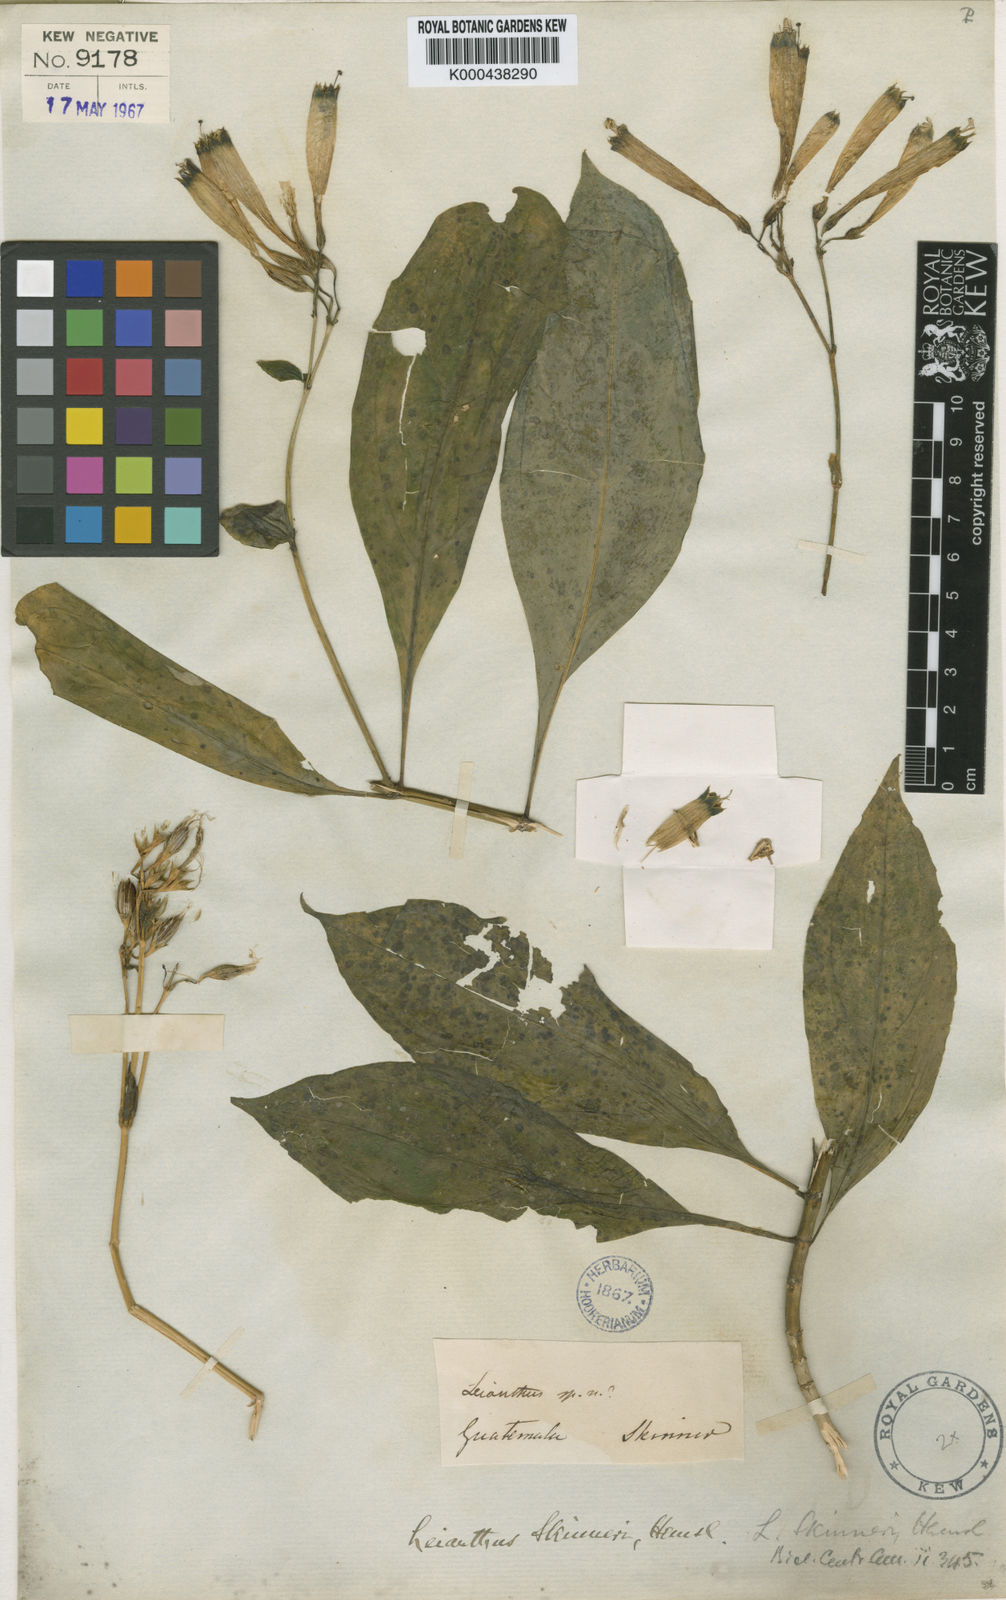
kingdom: Plantae
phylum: Tracheophyta
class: Magnoliopsida
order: Gentianales
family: Gentianaceae
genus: Lisianthus
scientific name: Lisianthus skinneri
